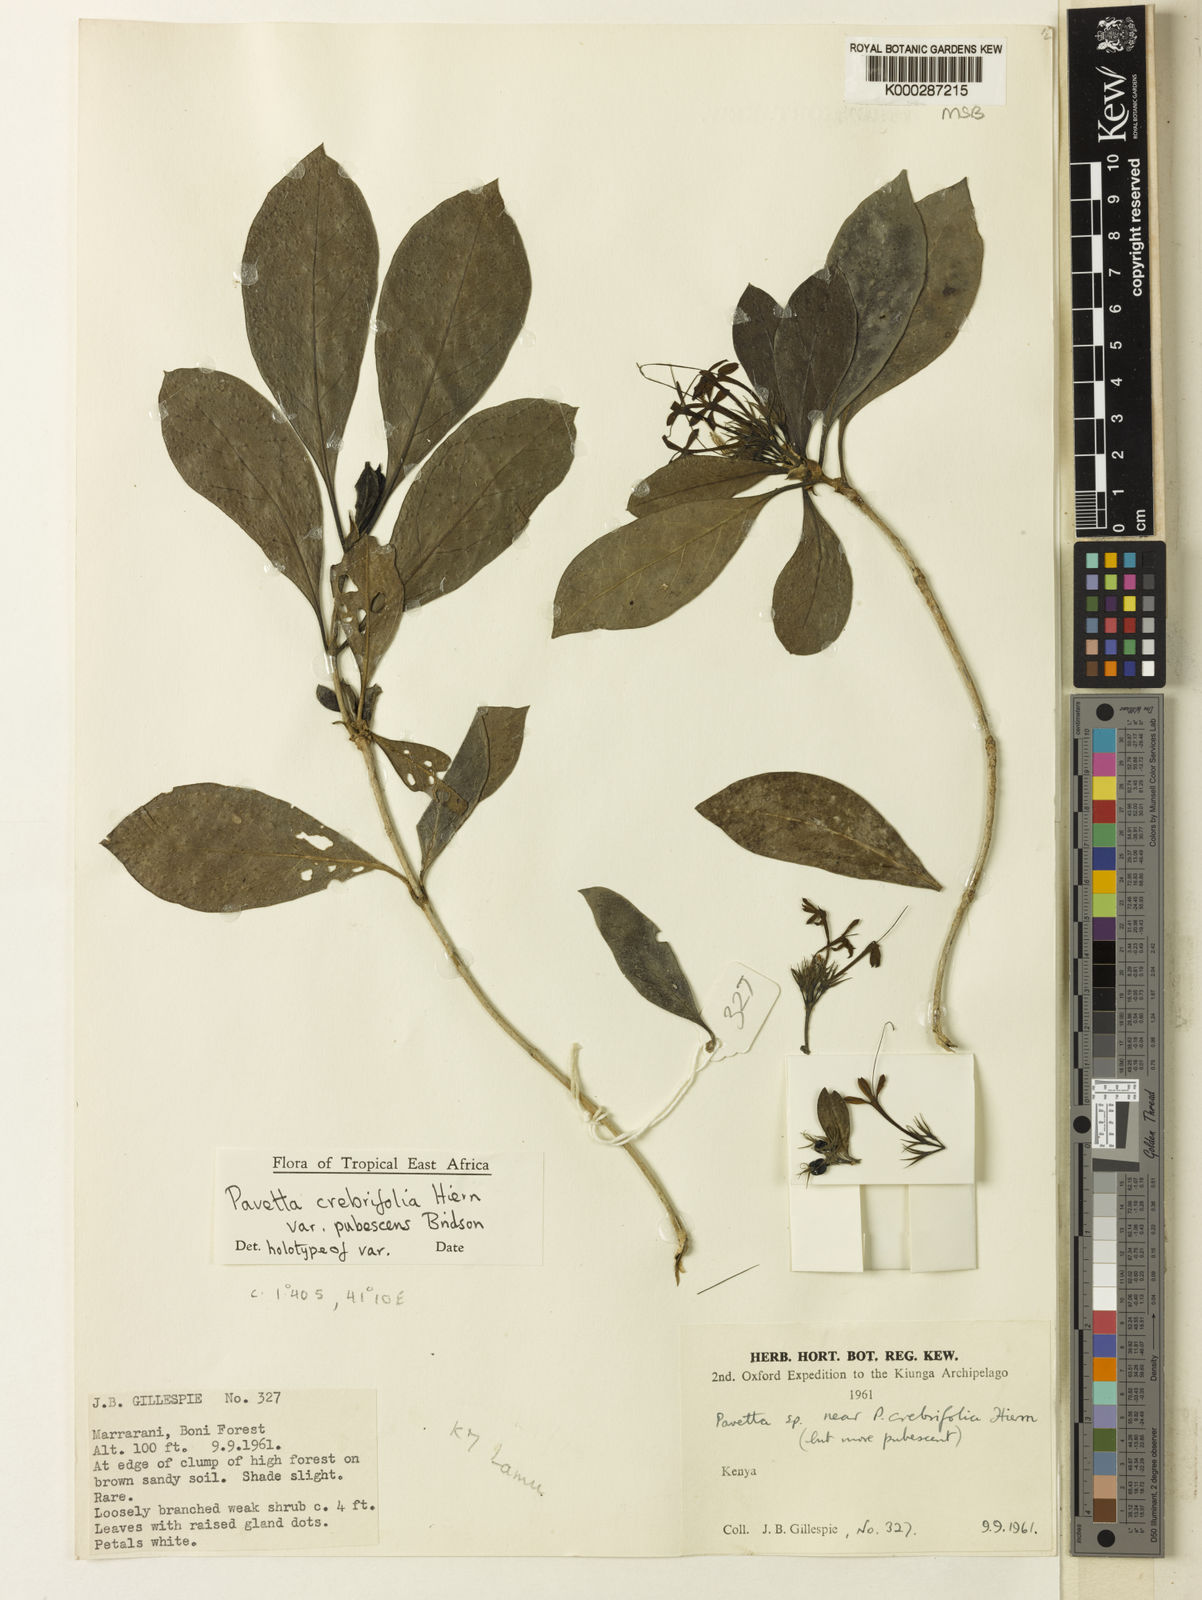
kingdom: Plantae
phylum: Tracheophyta
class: Magnoliopsida
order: Gentianales
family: Rubiaceae
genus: Pavetta
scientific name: Pavetta crebrifolia
